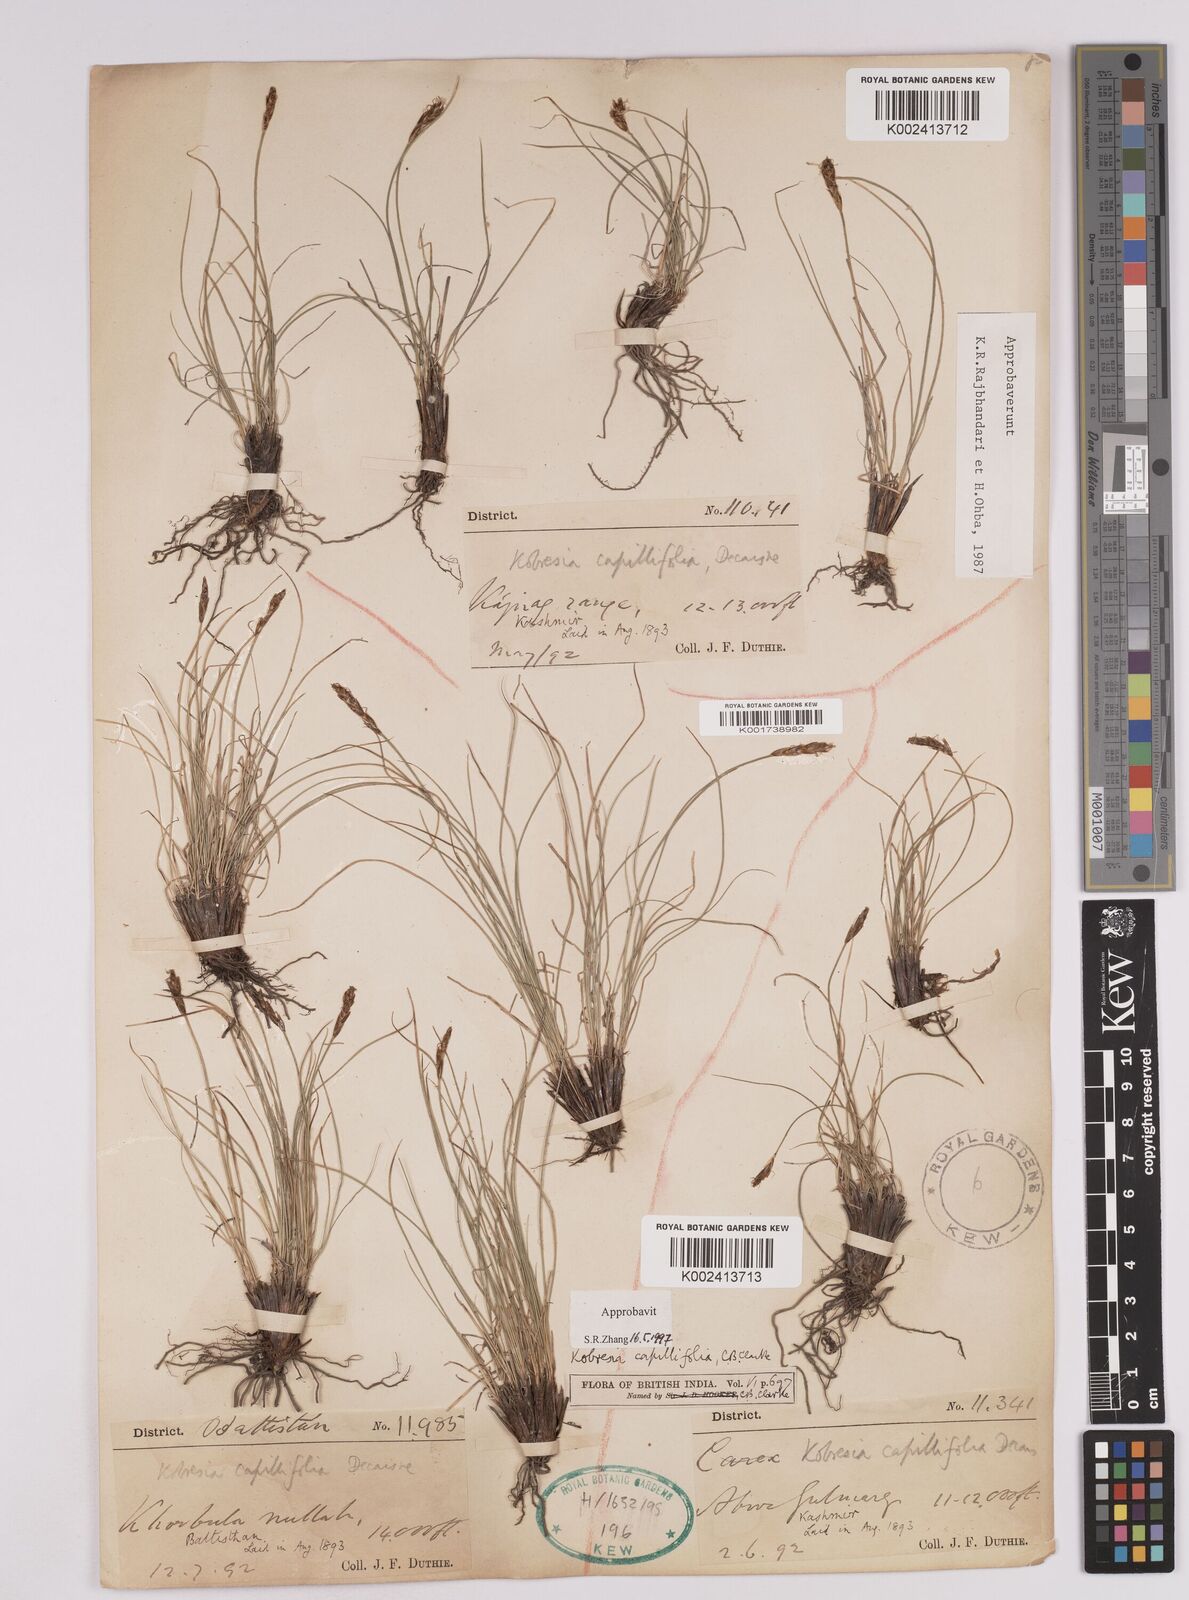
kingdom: Plantae
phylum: Tracheophyta
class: Liliopsida
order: Poales
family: Cyperaceae
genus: Carex
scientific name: Carex capillifolia
